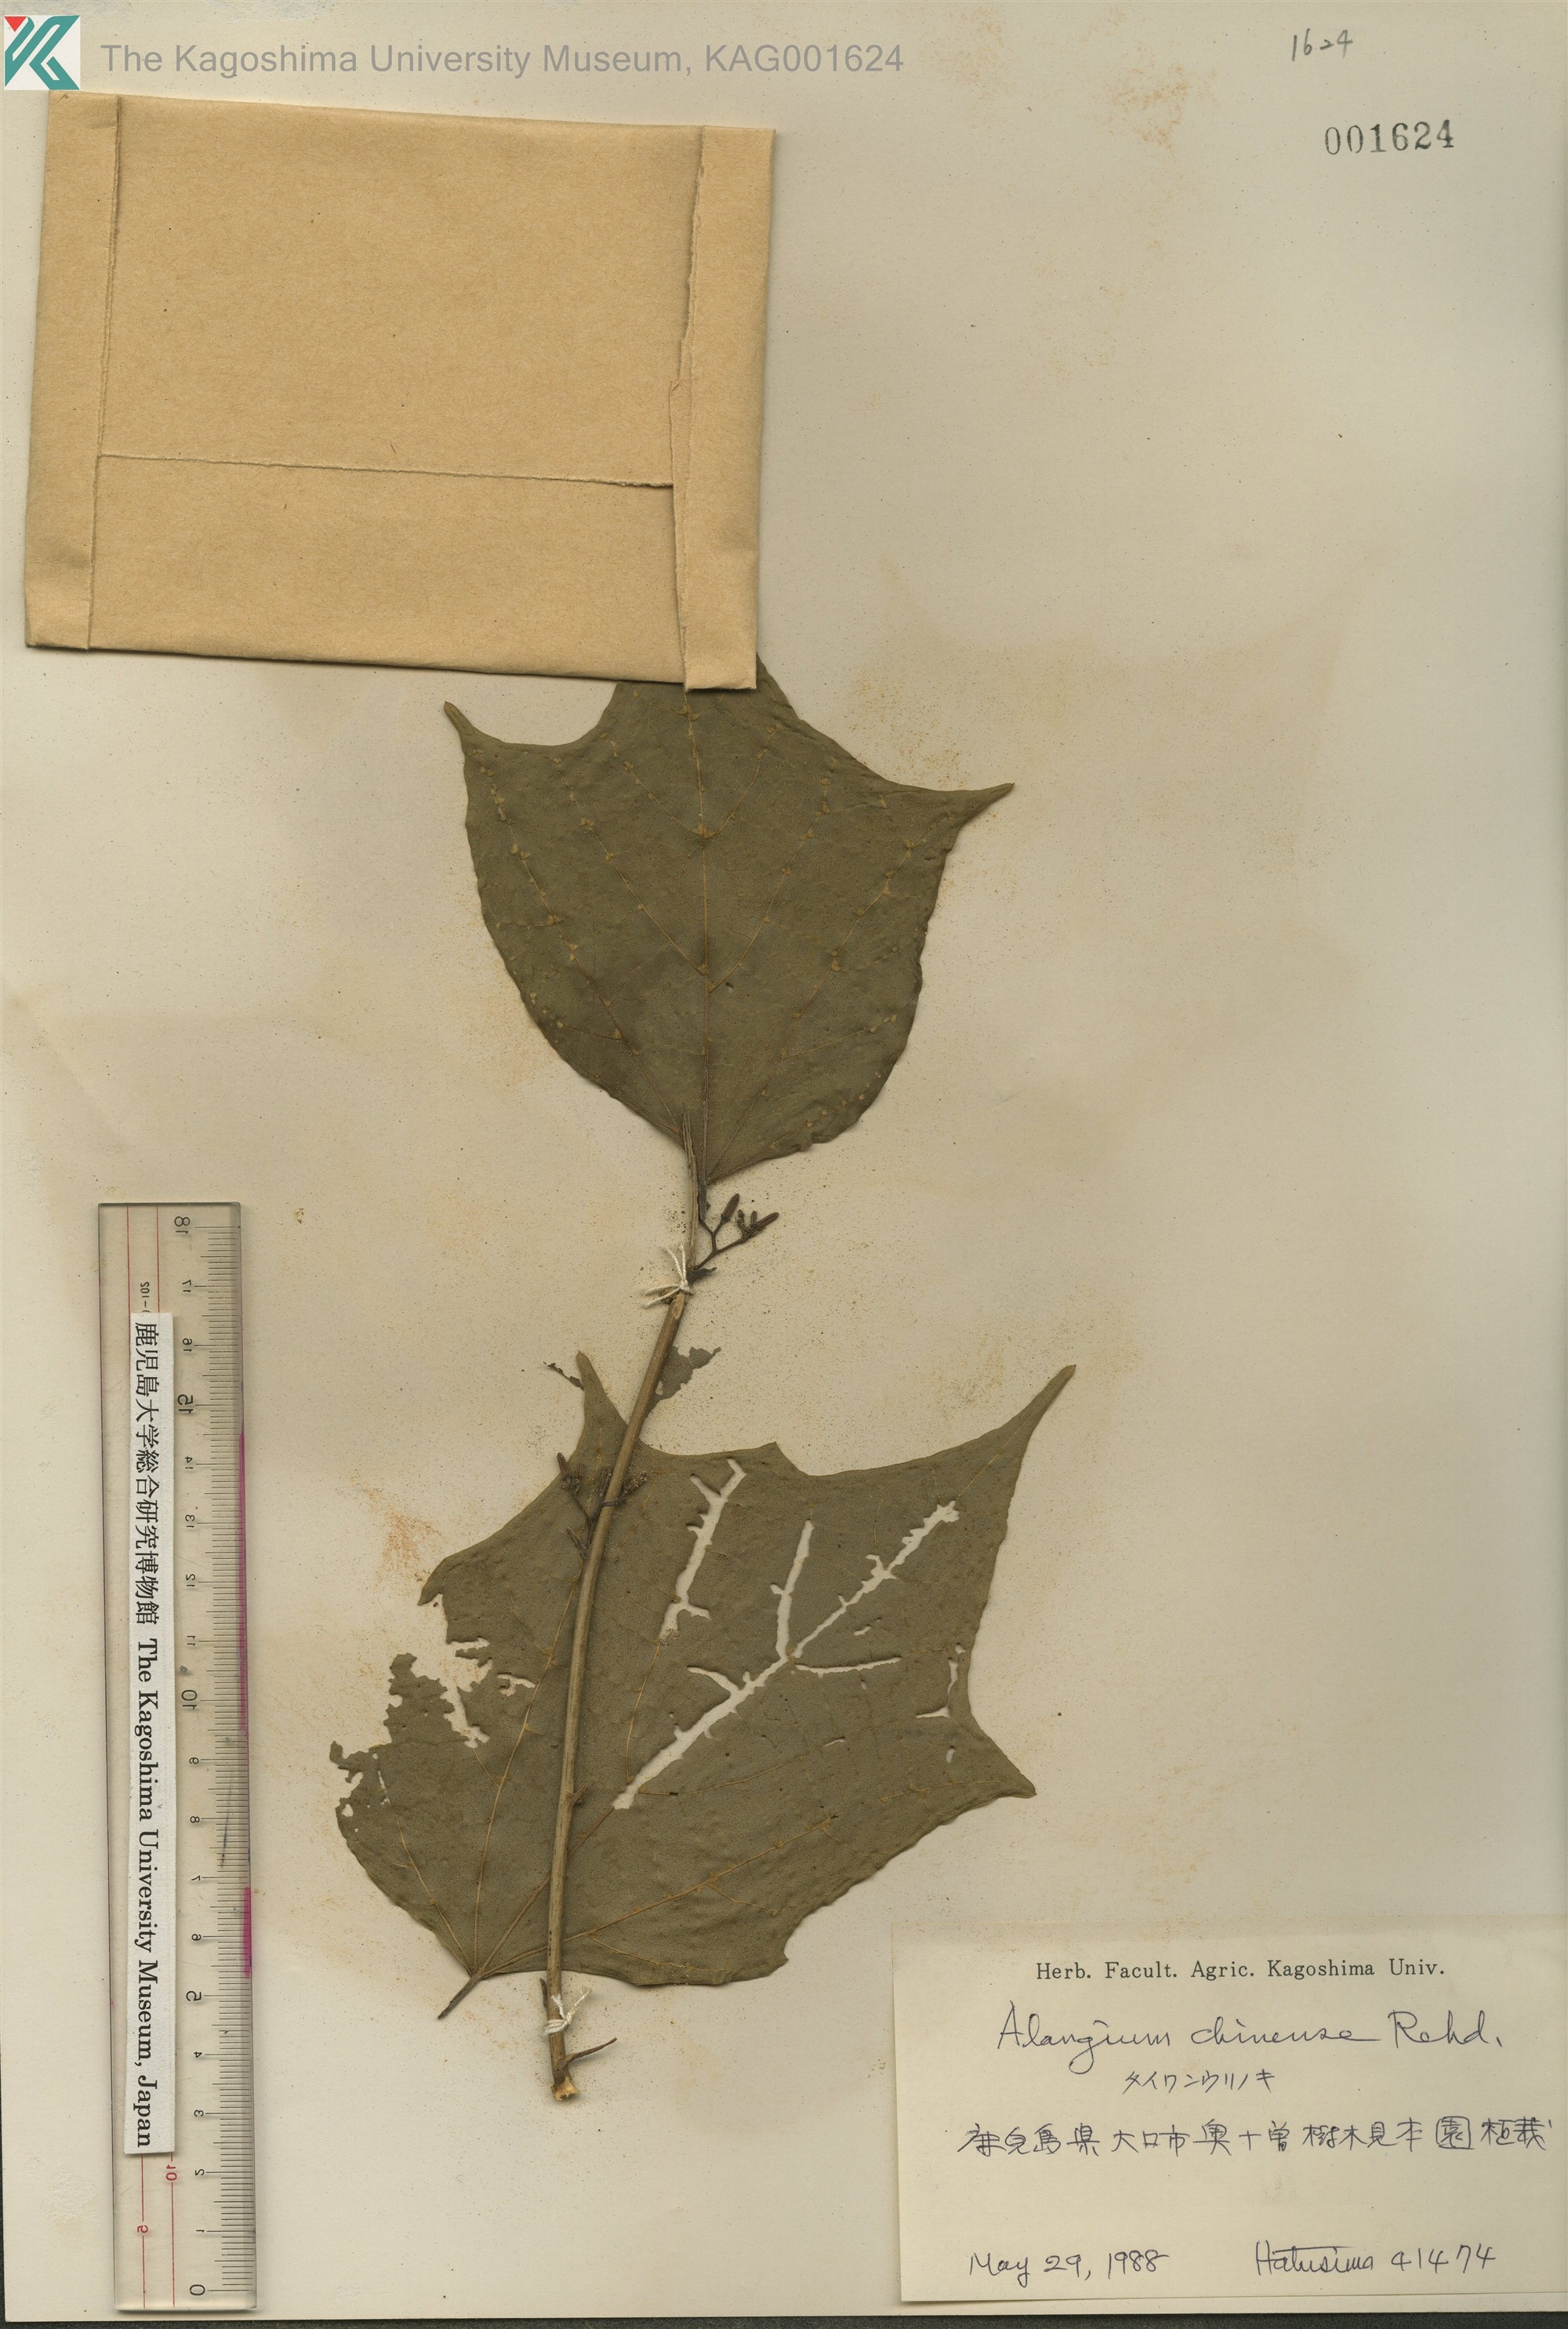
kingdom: Plantae
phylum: Tracheophyta
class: Magnoliopsida
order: Cornales
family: Cornaceae
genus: Alangium
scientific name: Alangium chinense
